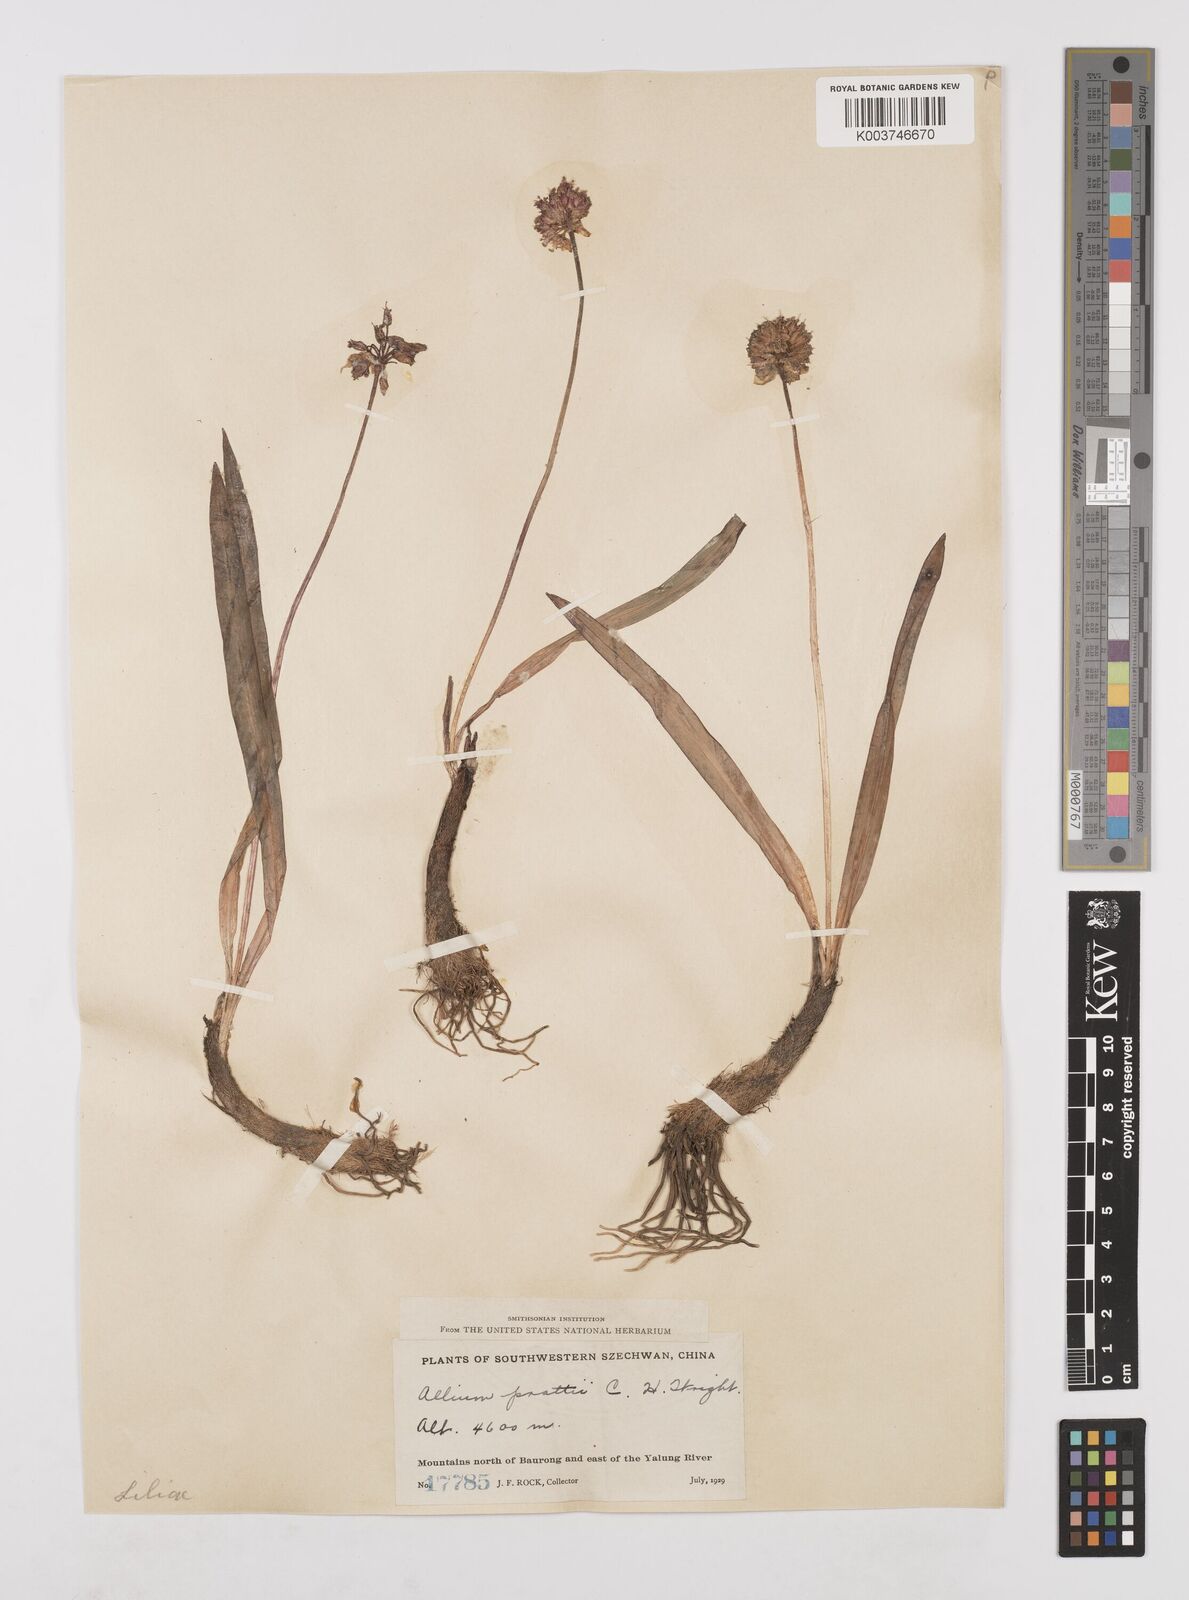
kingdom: Plantae
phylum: Tracheophyta
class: Liliopsida
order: Asparagales
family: Amaryllidaceae
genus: Allium
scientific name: Allium prattii
